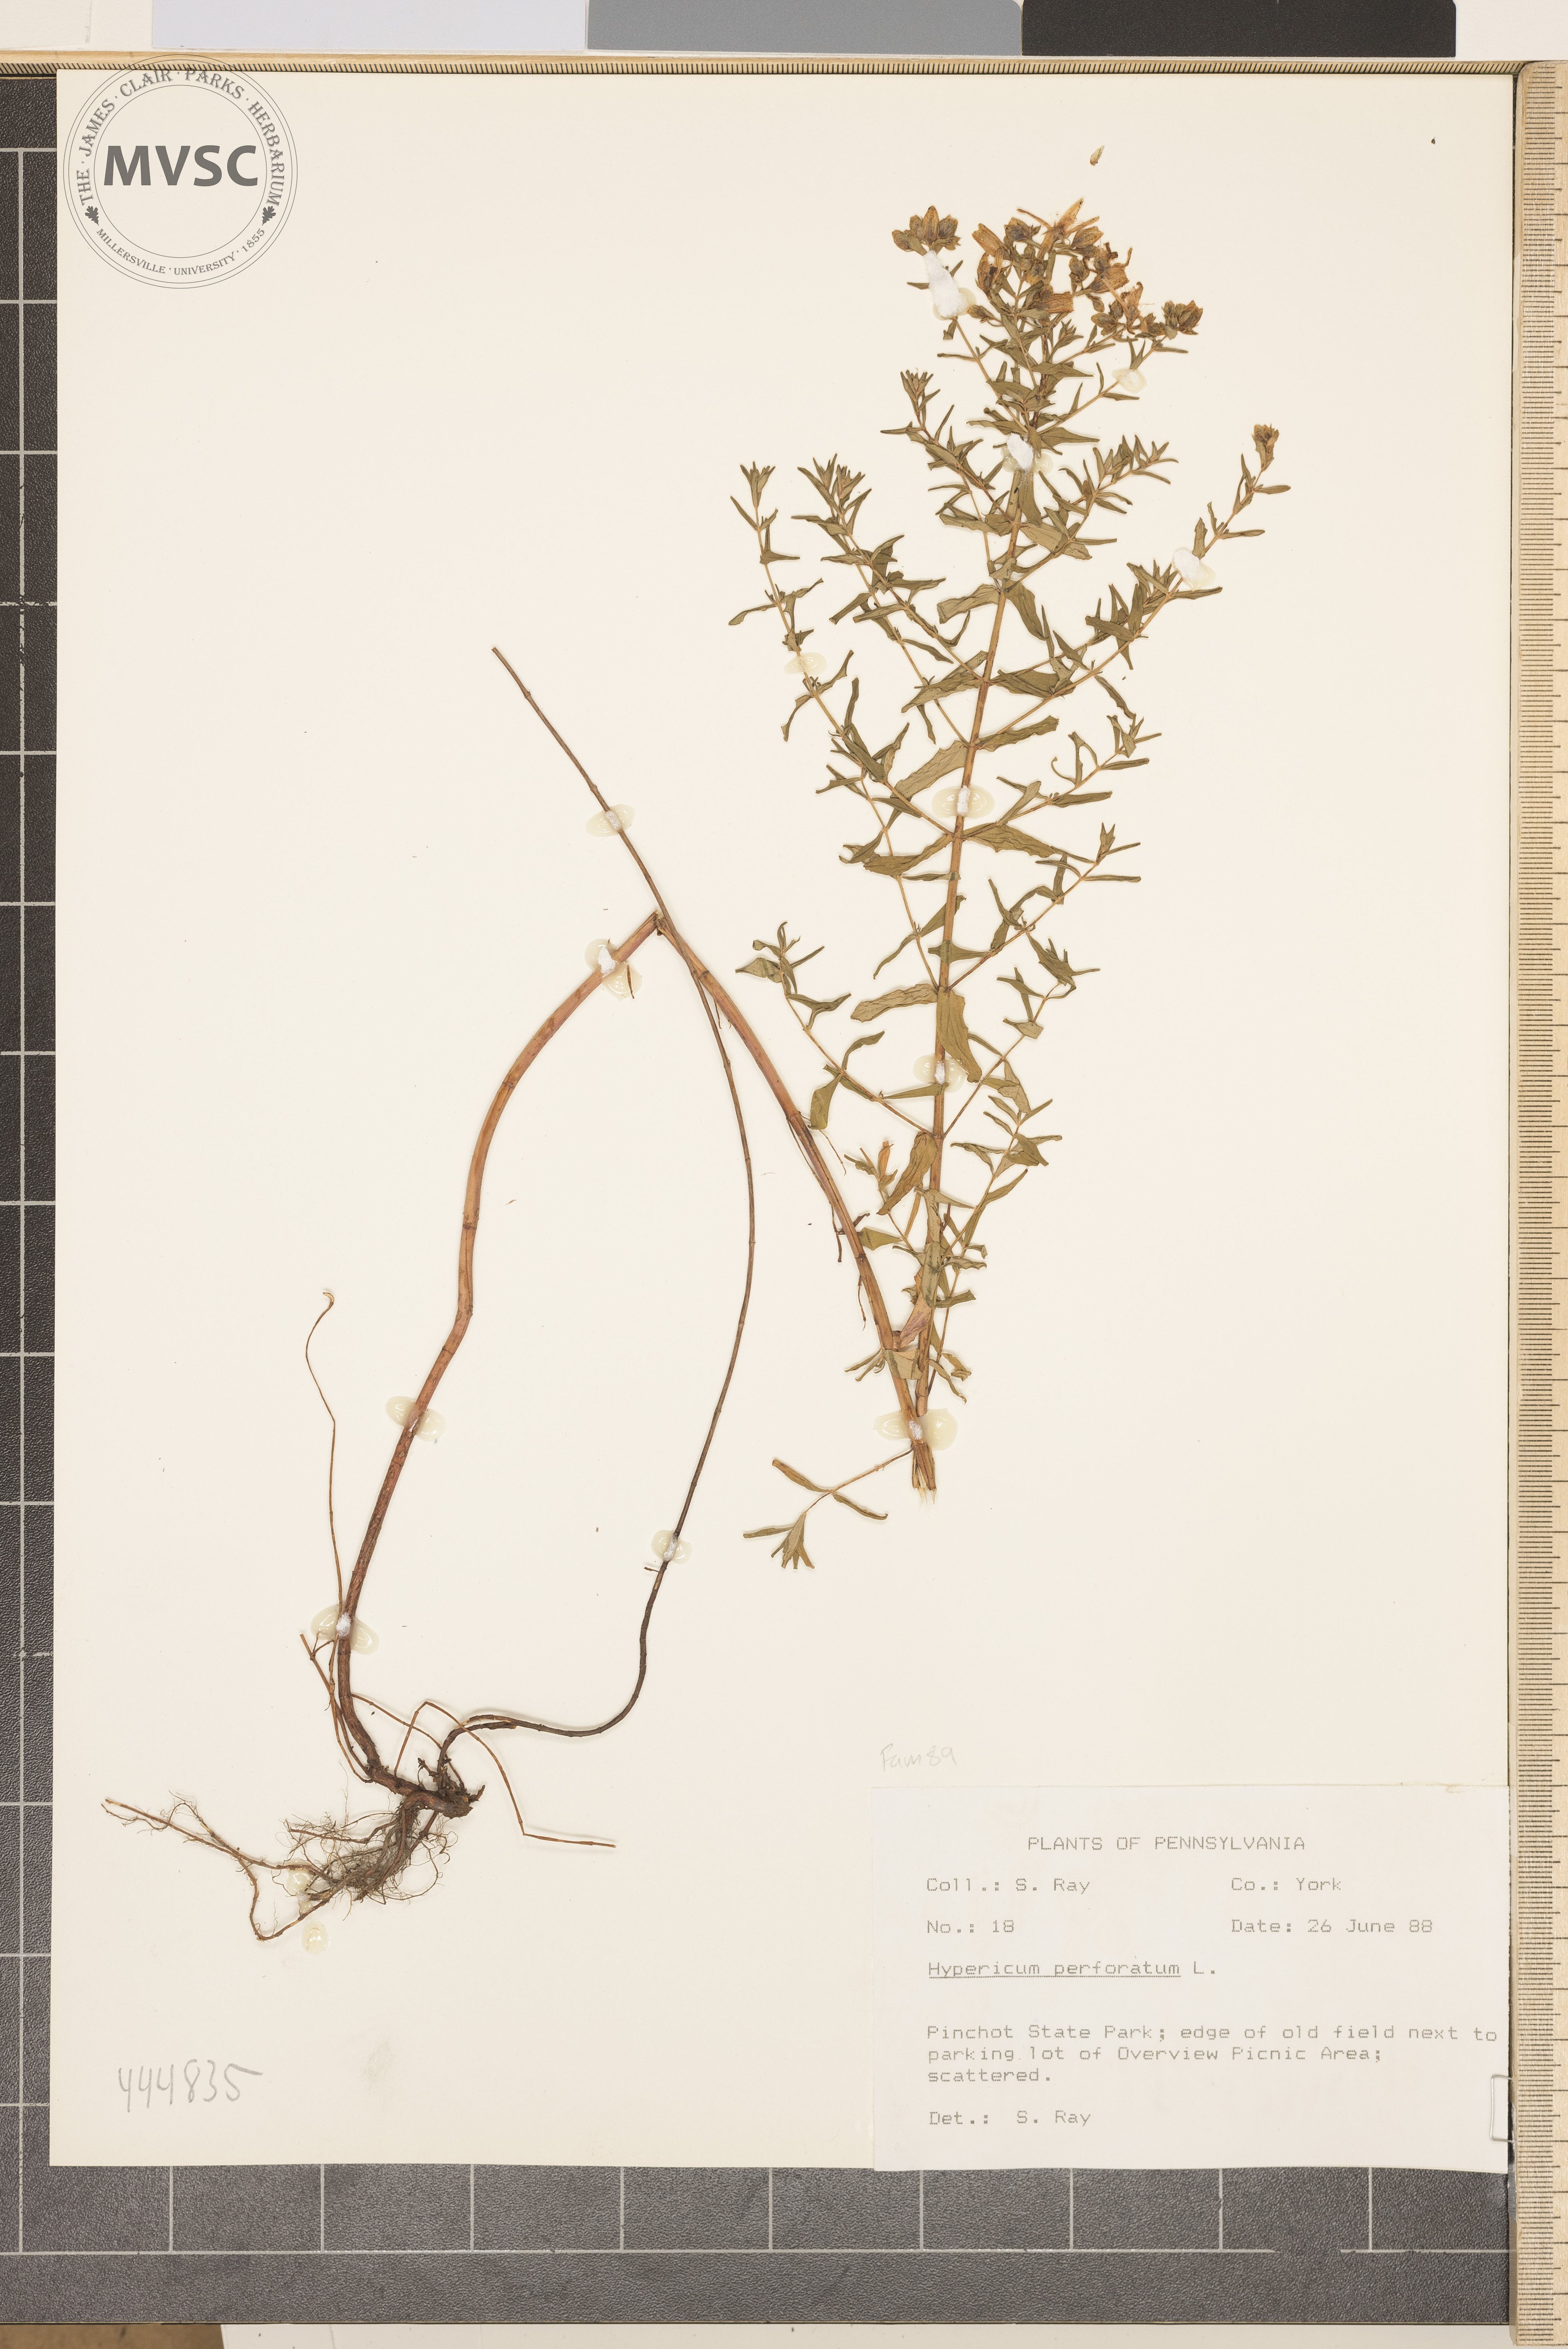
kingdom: Plantae
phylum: Tracheophyta
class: Magnoliopsida
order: Malpighiales
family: Hypericaceae
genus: Hypericum
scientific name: Hypericum perforatum
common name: Common st. johnswort
